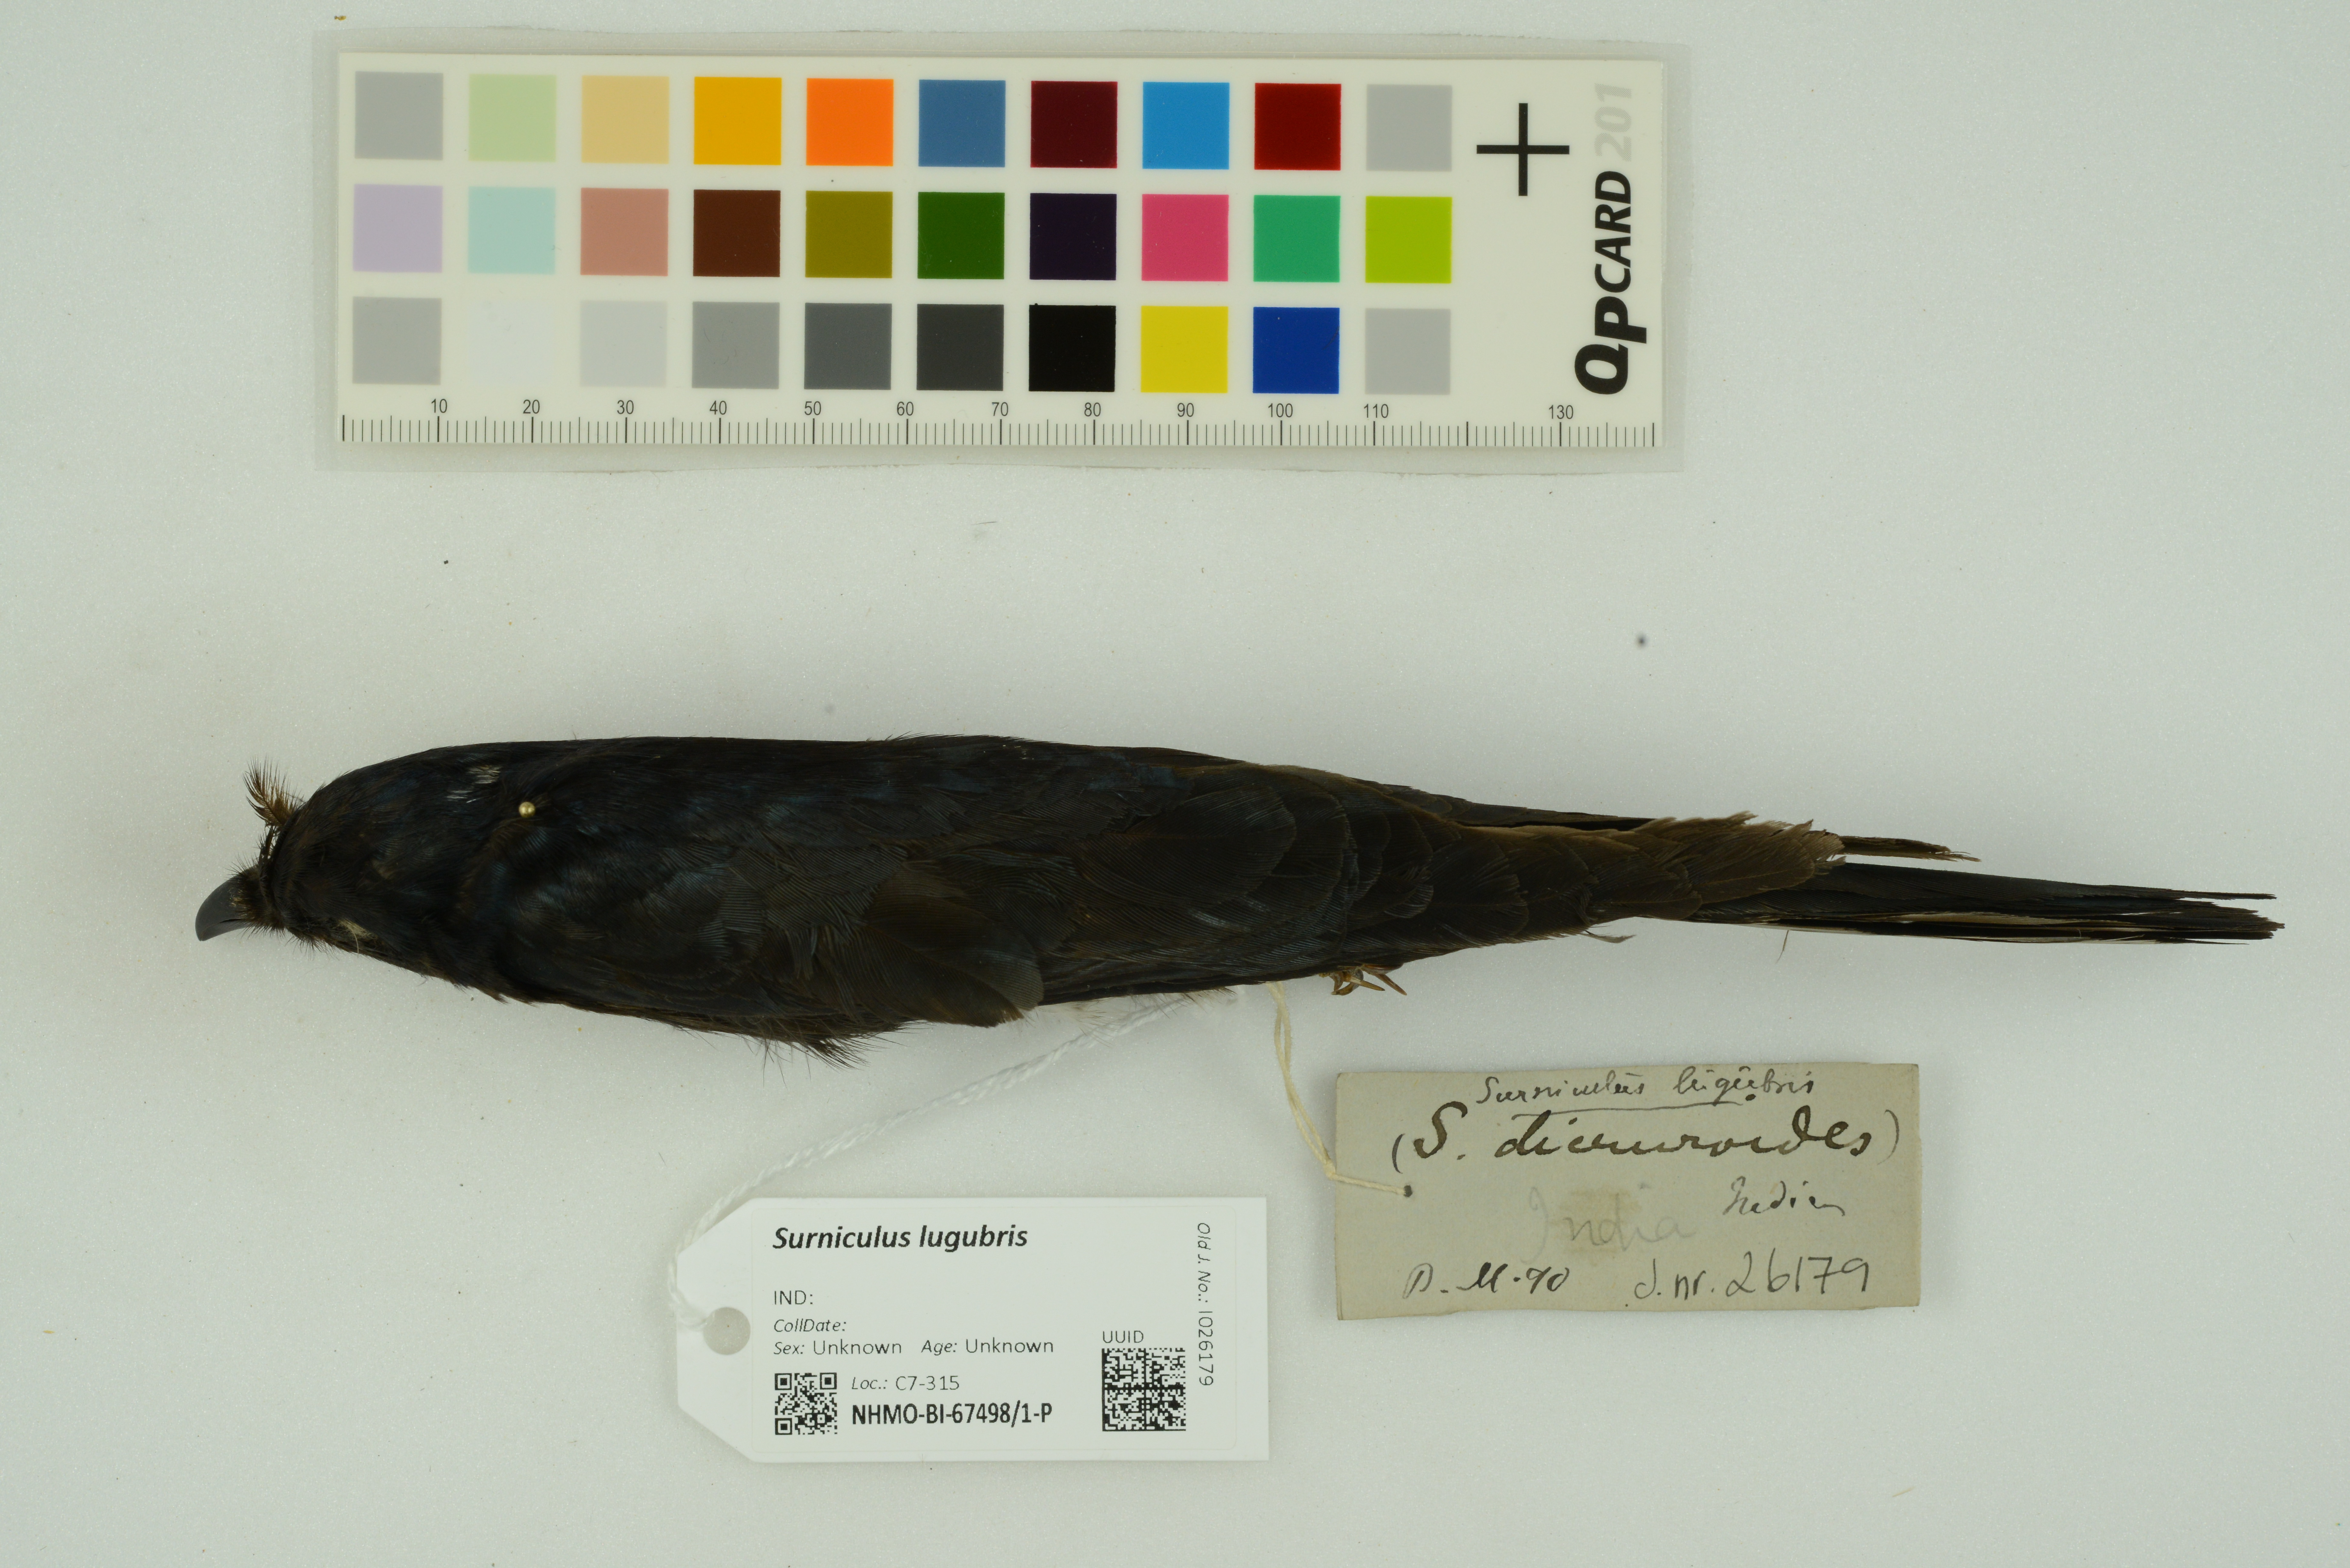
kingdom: Animalia
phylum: Chordata
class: Aves
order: Cuculiformes
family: Cuculidae
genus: Surniculus
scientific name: Surniculus lugubris
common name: Square-tailed drongo-cuckoo
